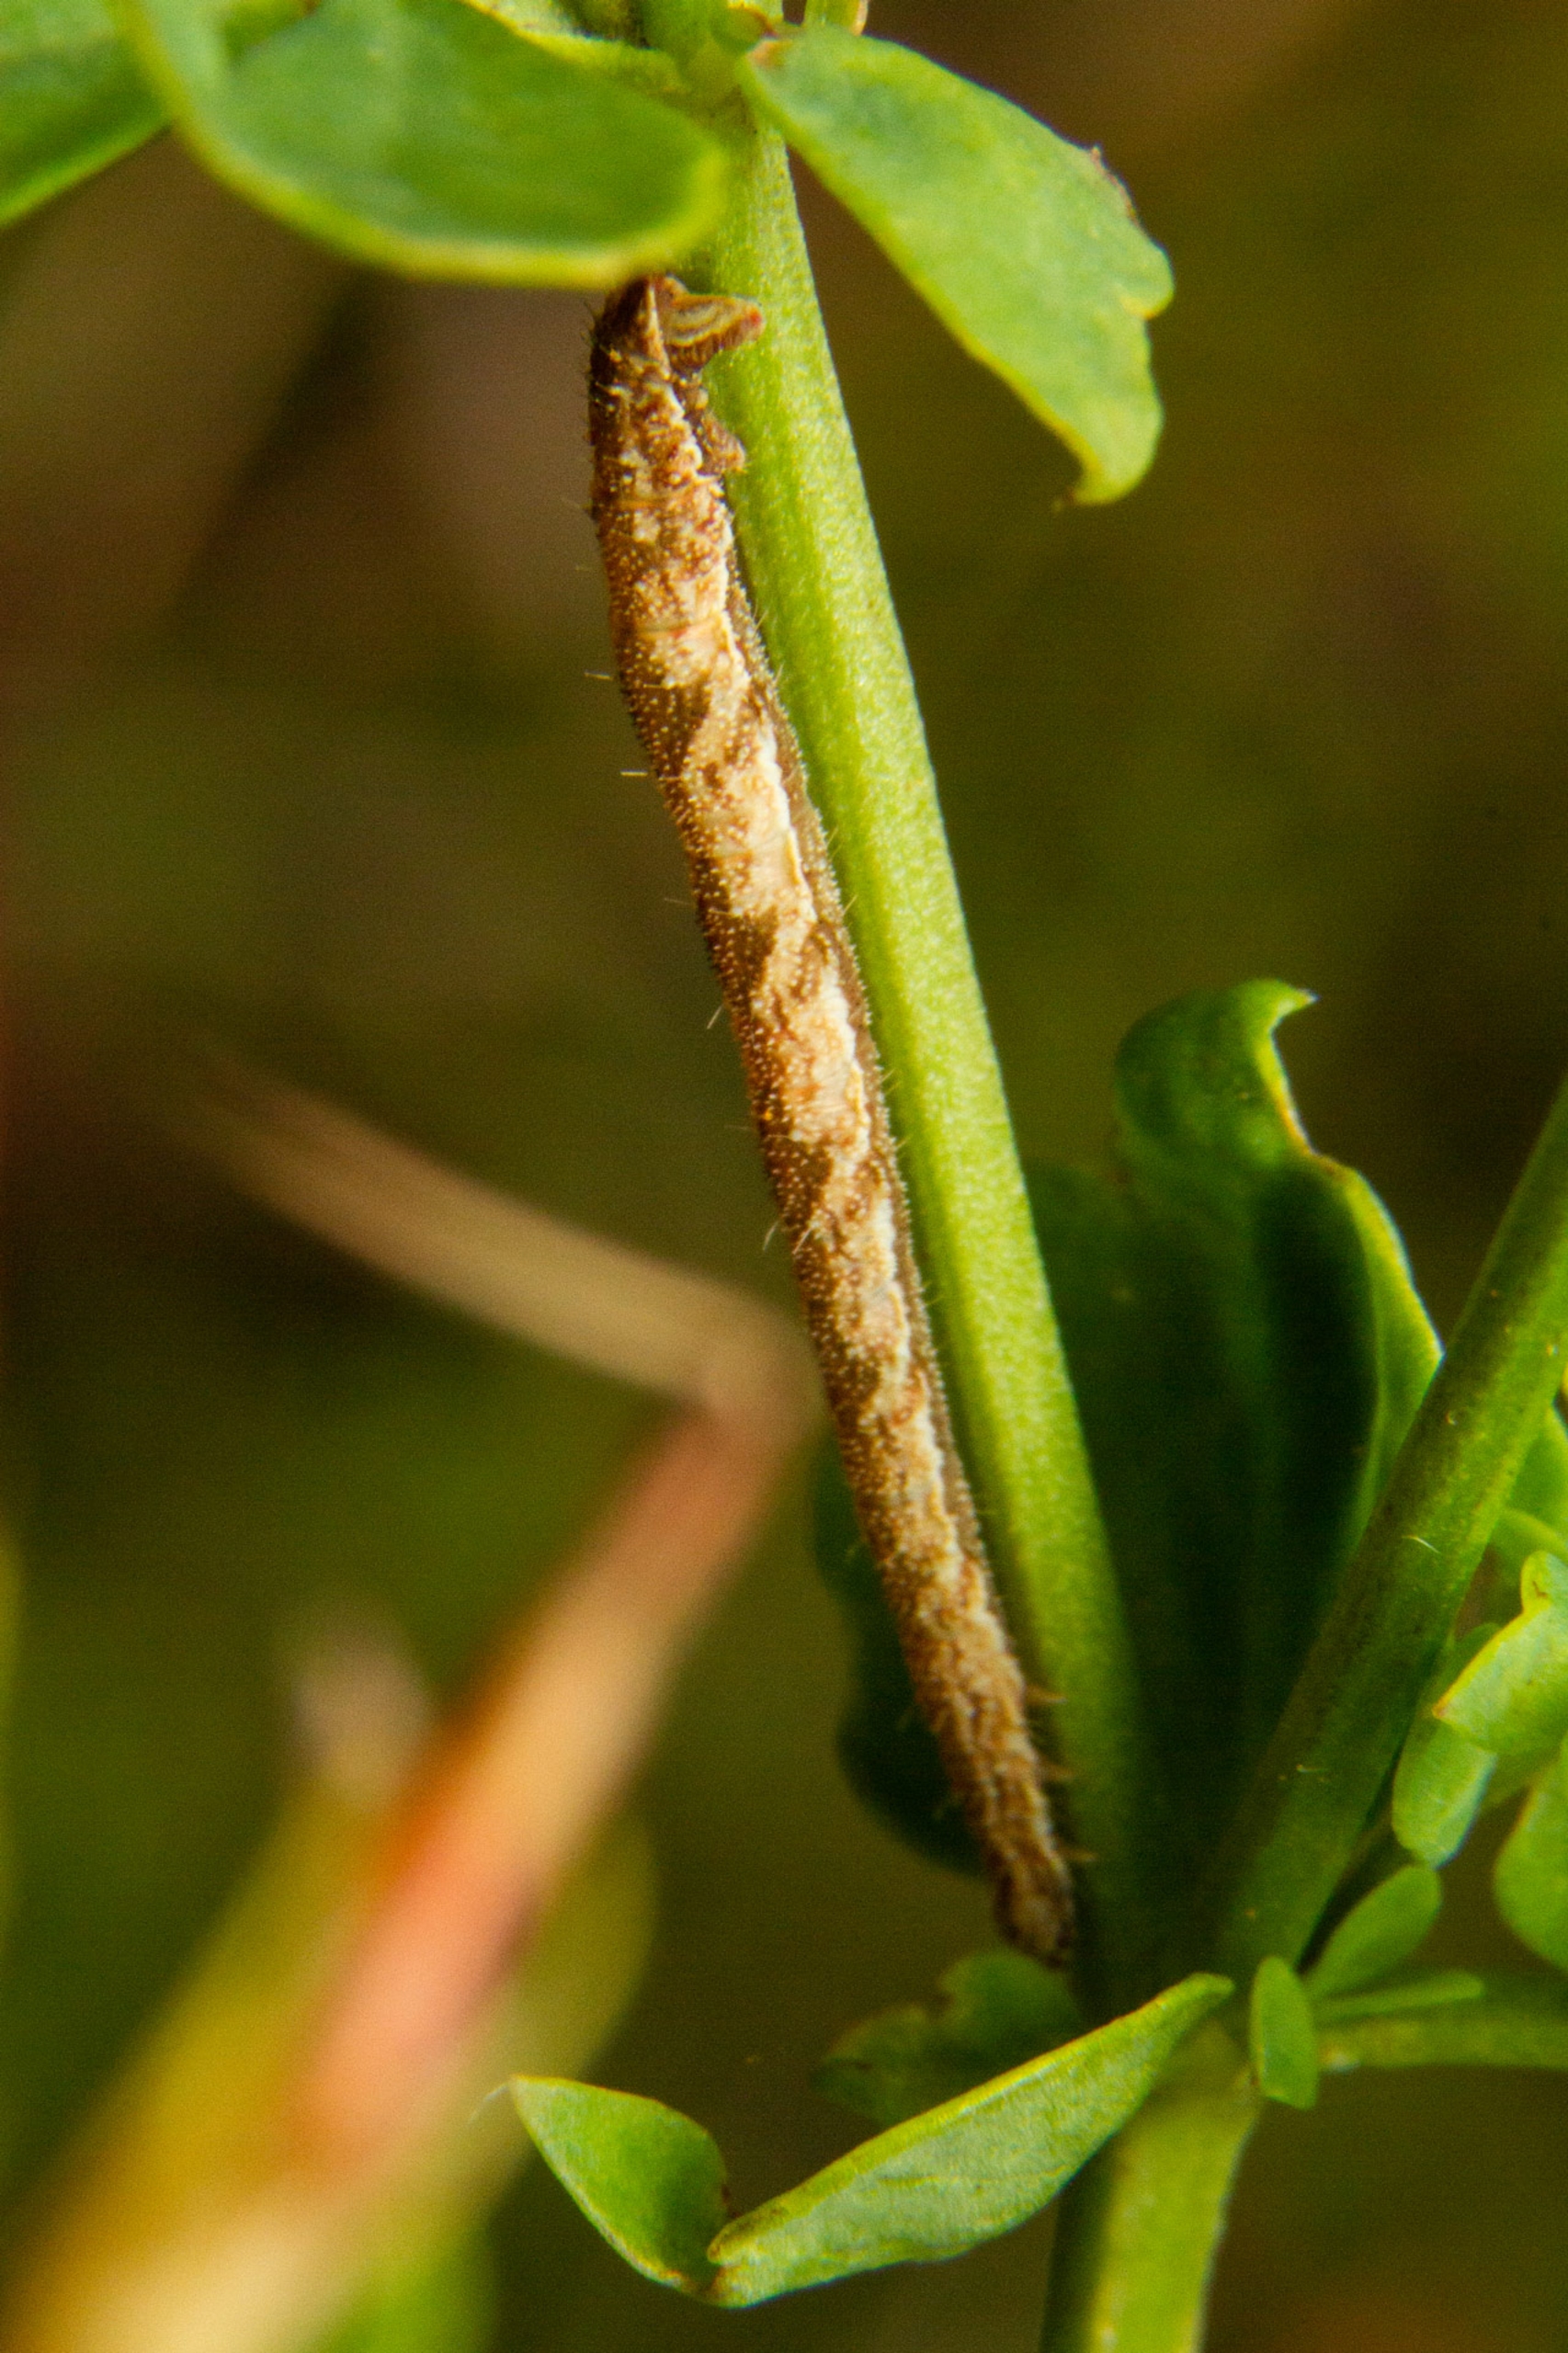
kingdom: Animalia
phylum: Arthropoda
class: Insecta
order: Lepidoptera
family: Geometridae
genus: Eupithecia
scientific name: Eupithecia
